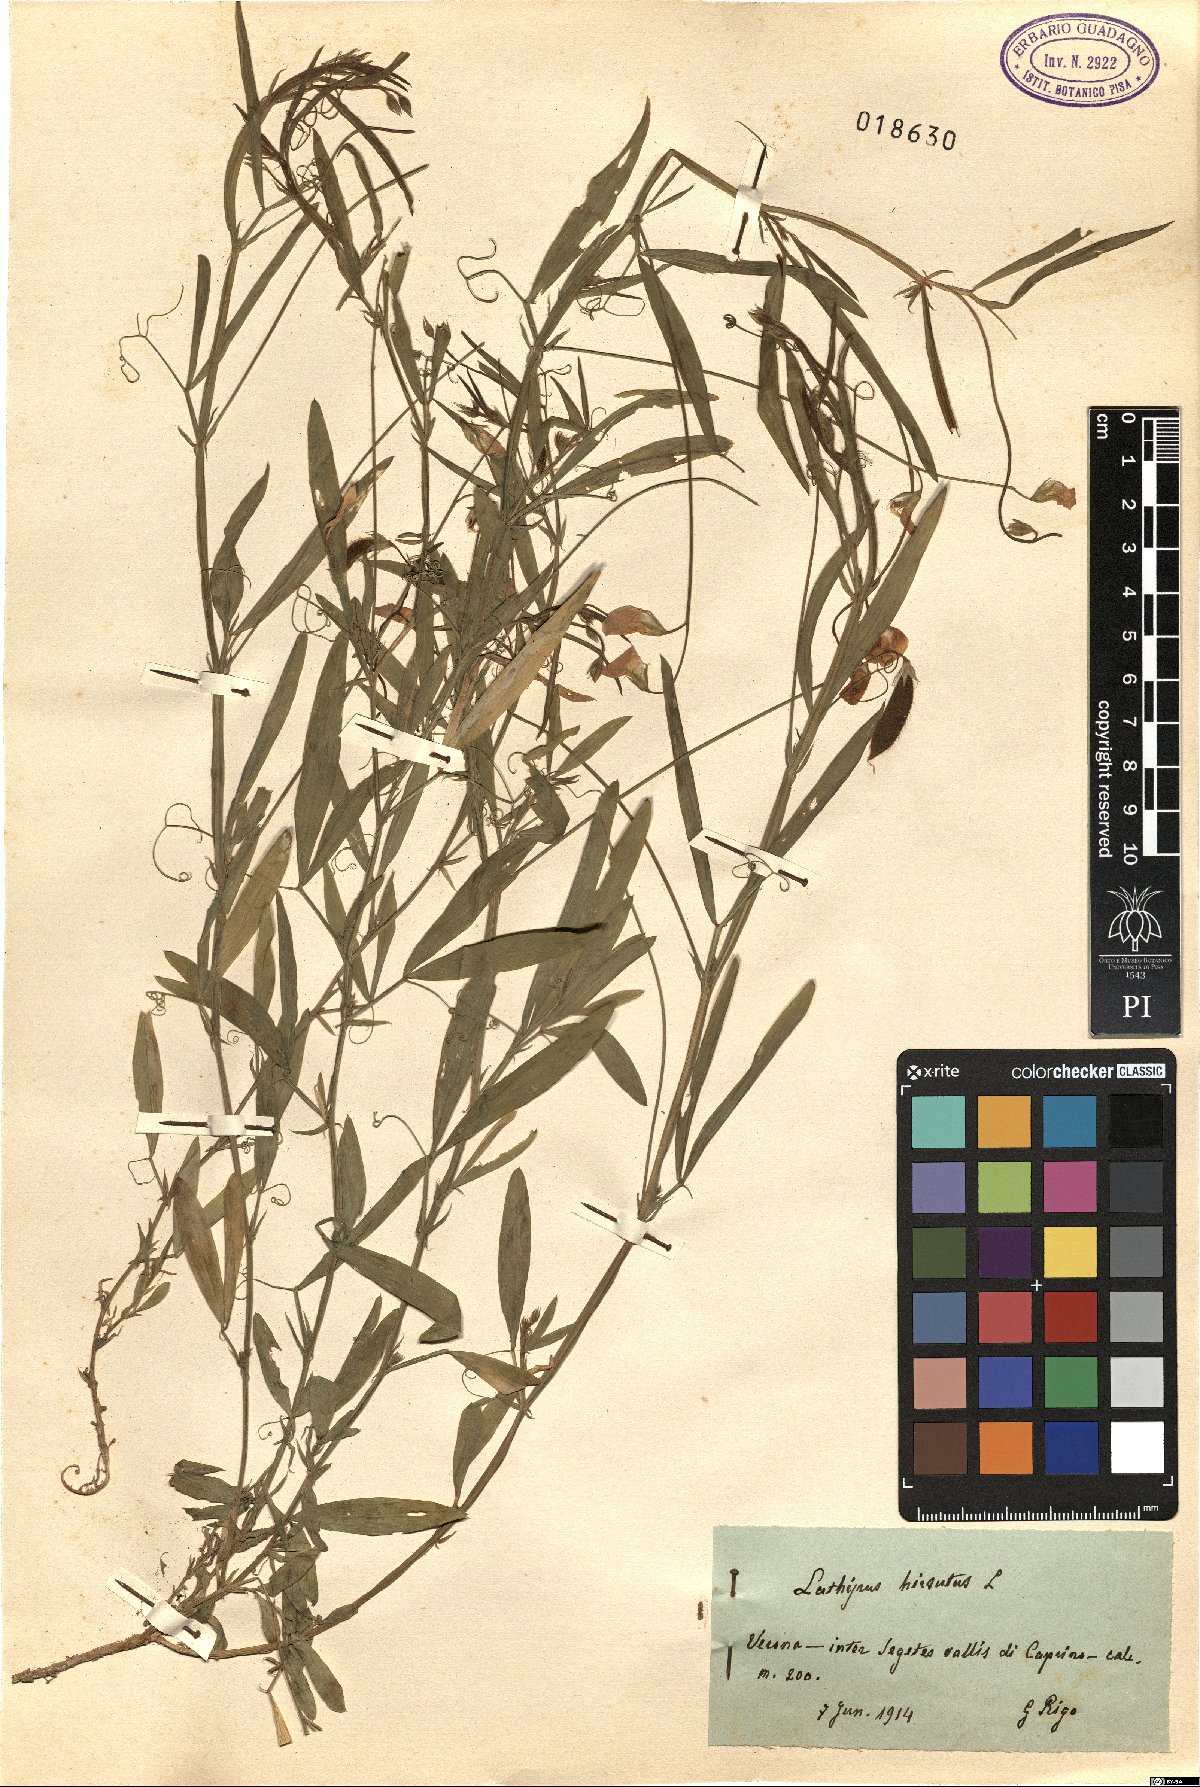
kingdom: Plantae
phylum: Tracheophyta
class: Magnoliopsida
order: Fabales
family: Fabaceae
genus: Lathyrus
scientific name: Lathyrus hirsutus
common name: Hairy vetchling
